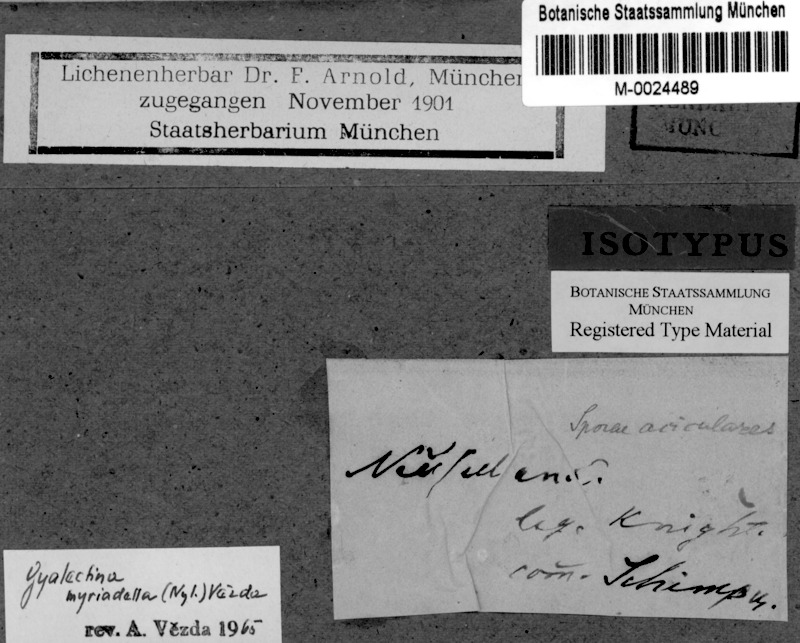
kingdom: Fungi
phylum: Ascomycota
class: Lecanoromycetes
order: Gyalectales
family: Gyalectaceae
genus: Cryptolechia
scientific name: Cryptolechia myriadella
